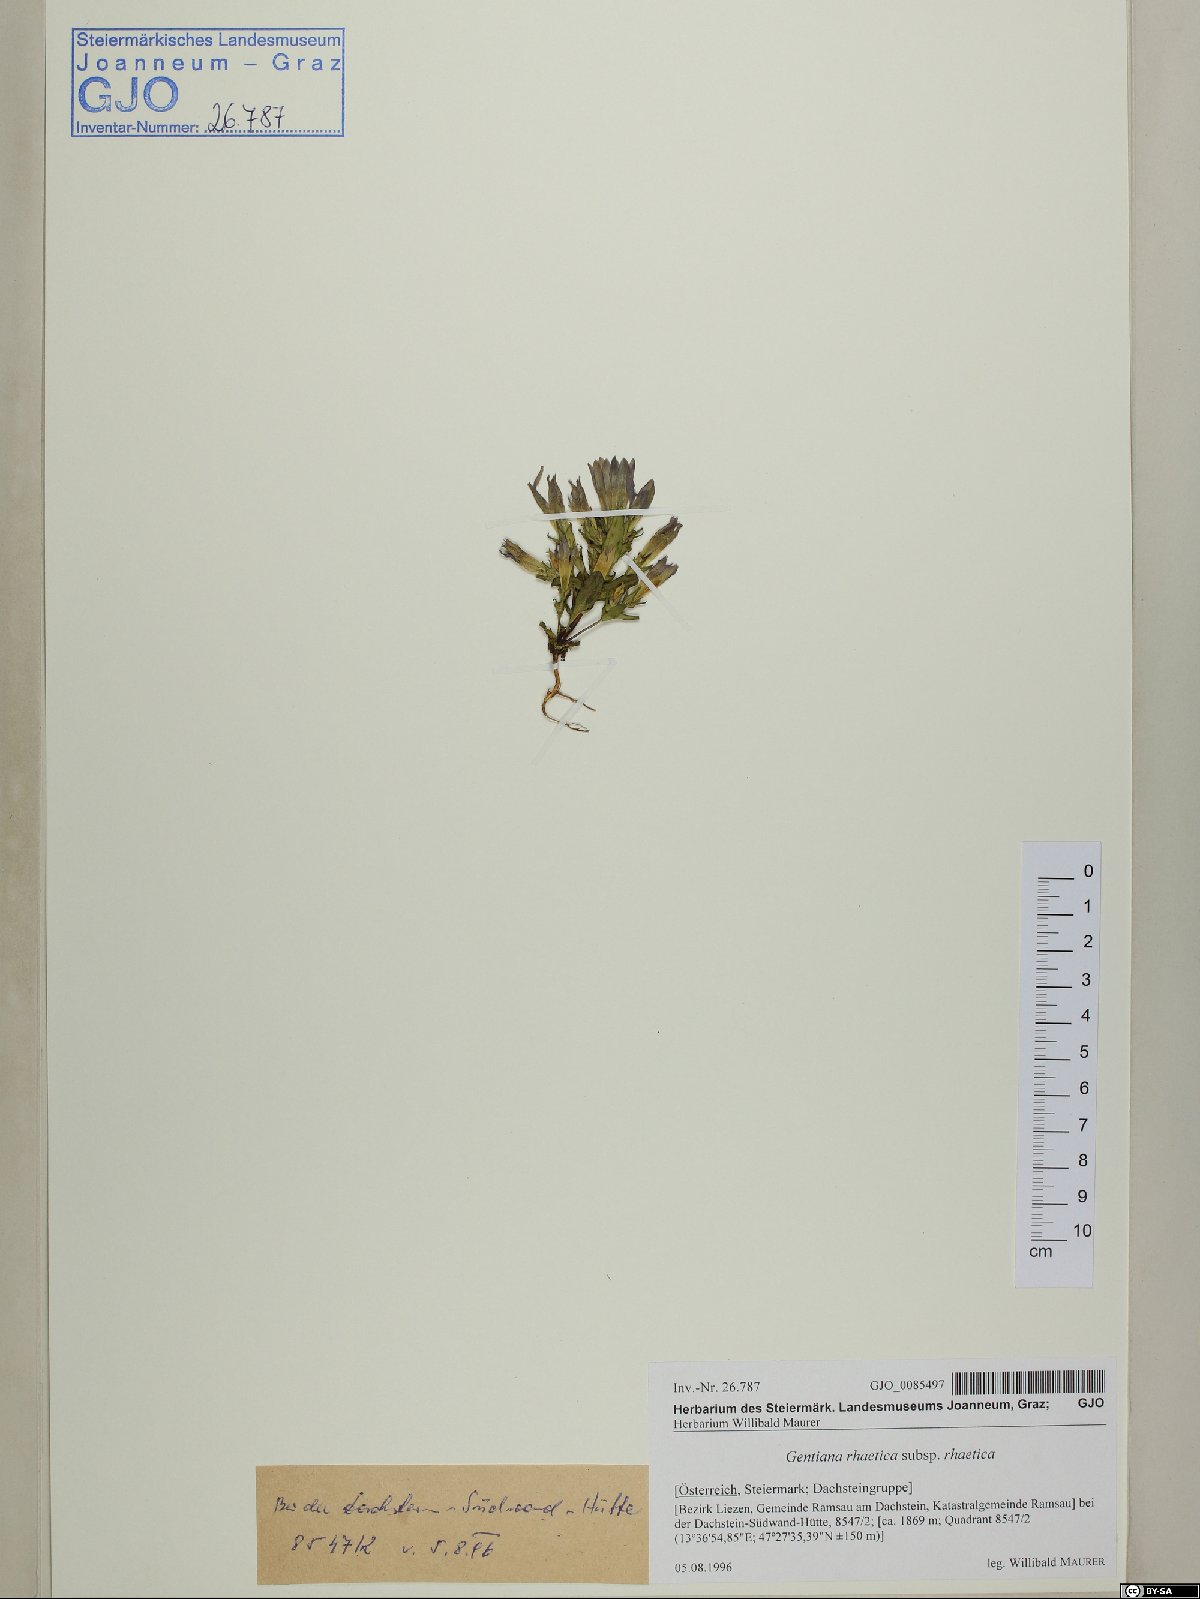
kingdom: Plantae
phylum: Tracheophyta
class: Magnoliopsida
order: Gentianales
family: Gentianaceae
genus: Gentianella
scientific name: Gentianella rhaetica
